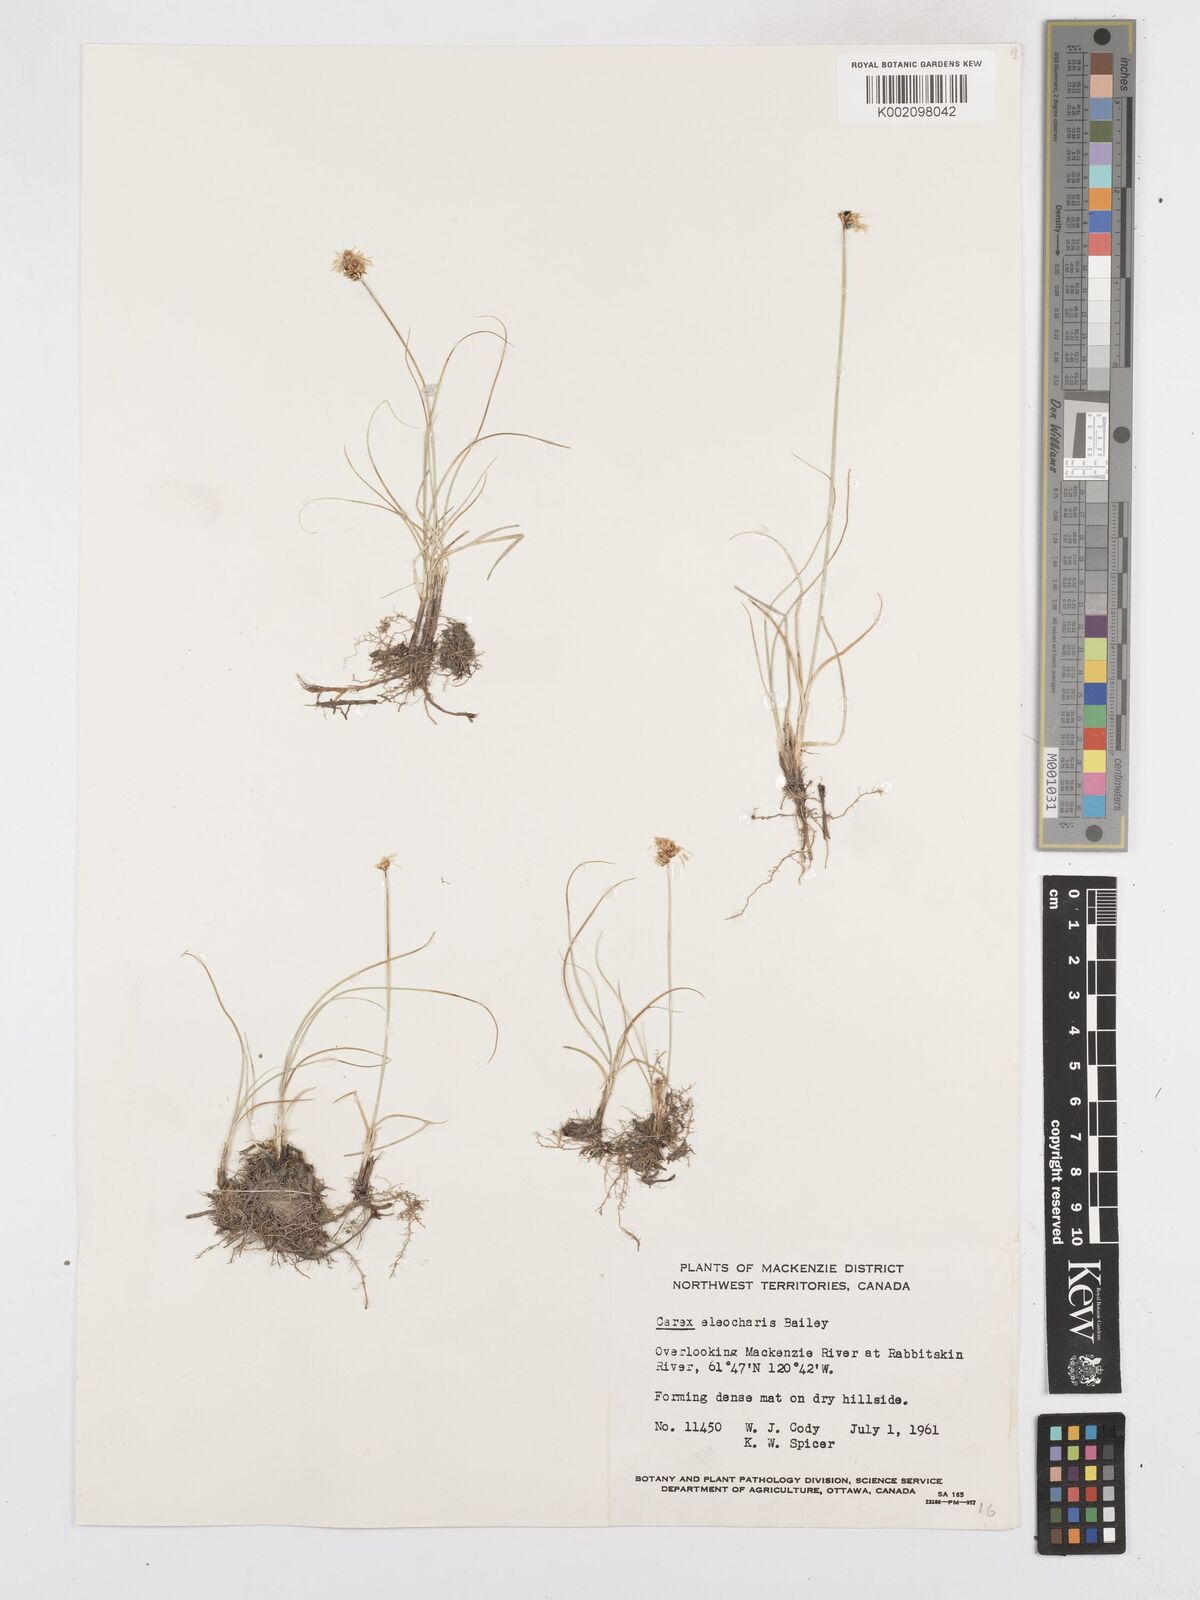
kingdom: Plantae
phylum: Tracheophyta
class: Liliopsida
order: Poales
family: Cyperaceae
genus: Carex
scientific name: Carex duriuscula
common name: Involute-leaved sedge
